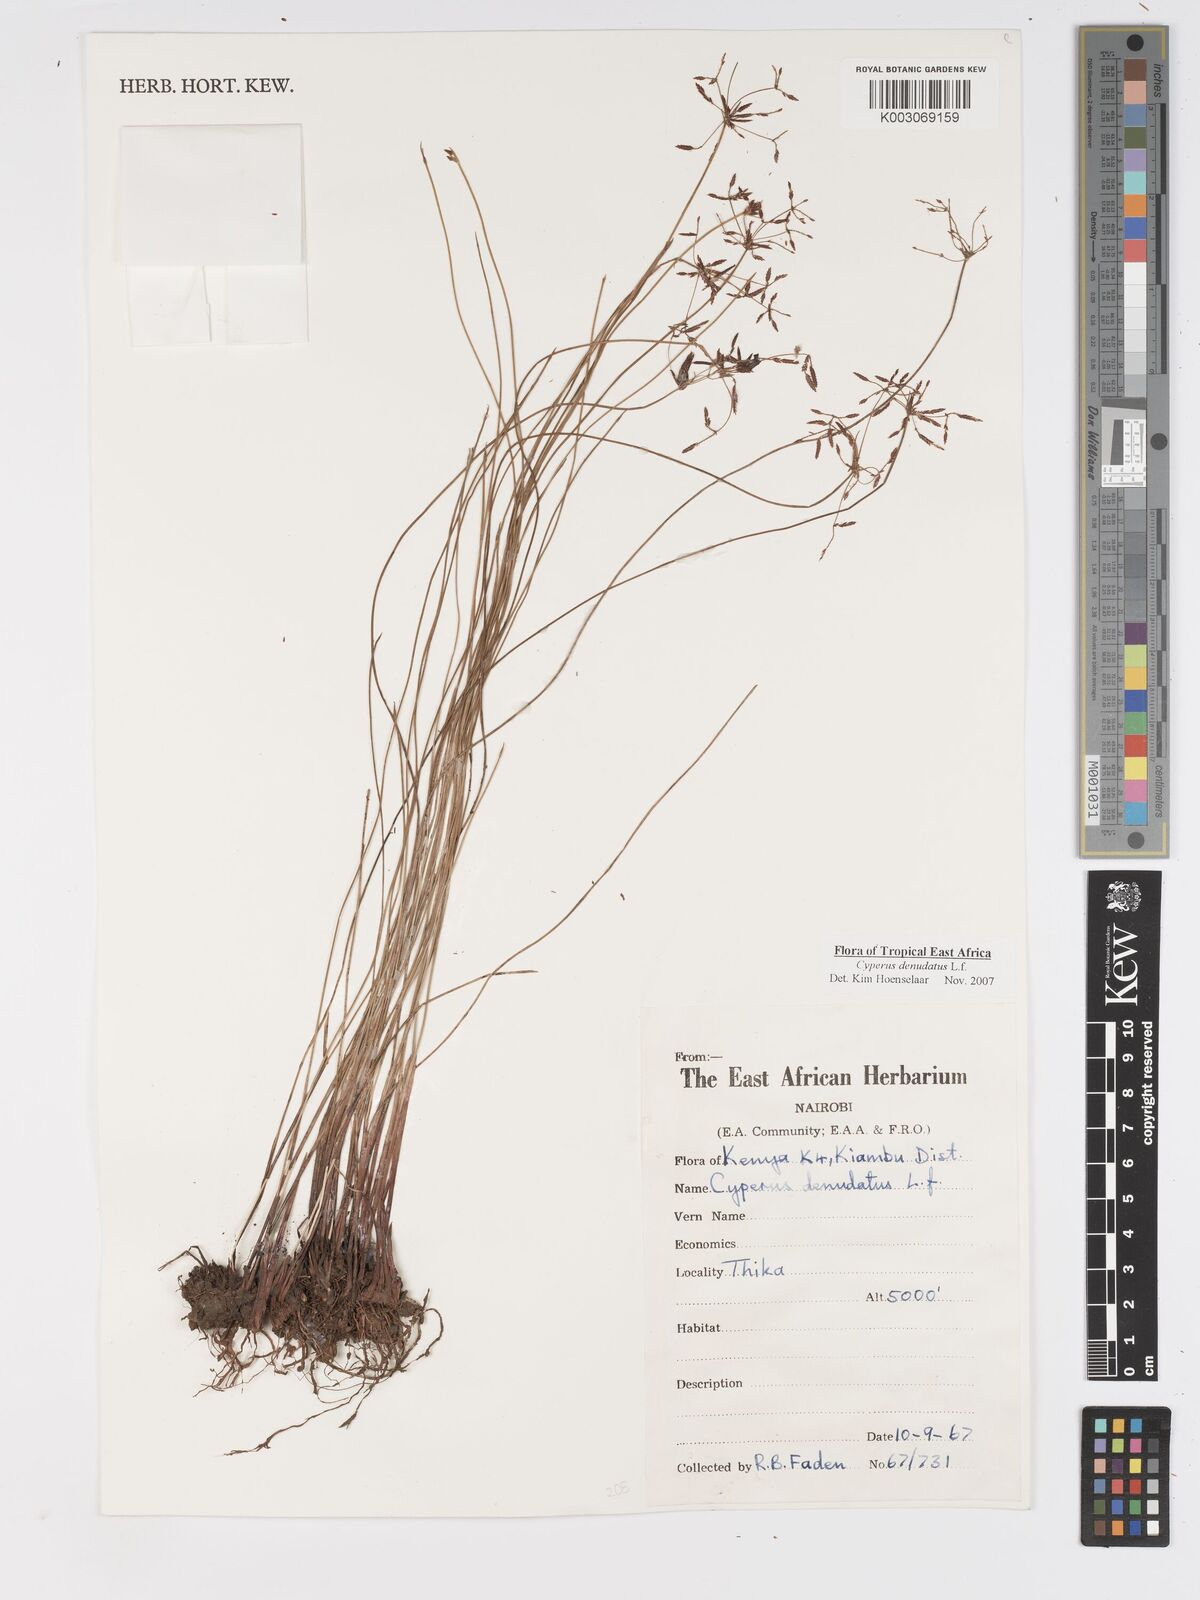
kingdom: Plantae
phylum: Tracheophyta
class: Liliopsida
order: Poales
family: Cyperaceae
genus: Cyperus
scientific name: Cyperus denudatus
